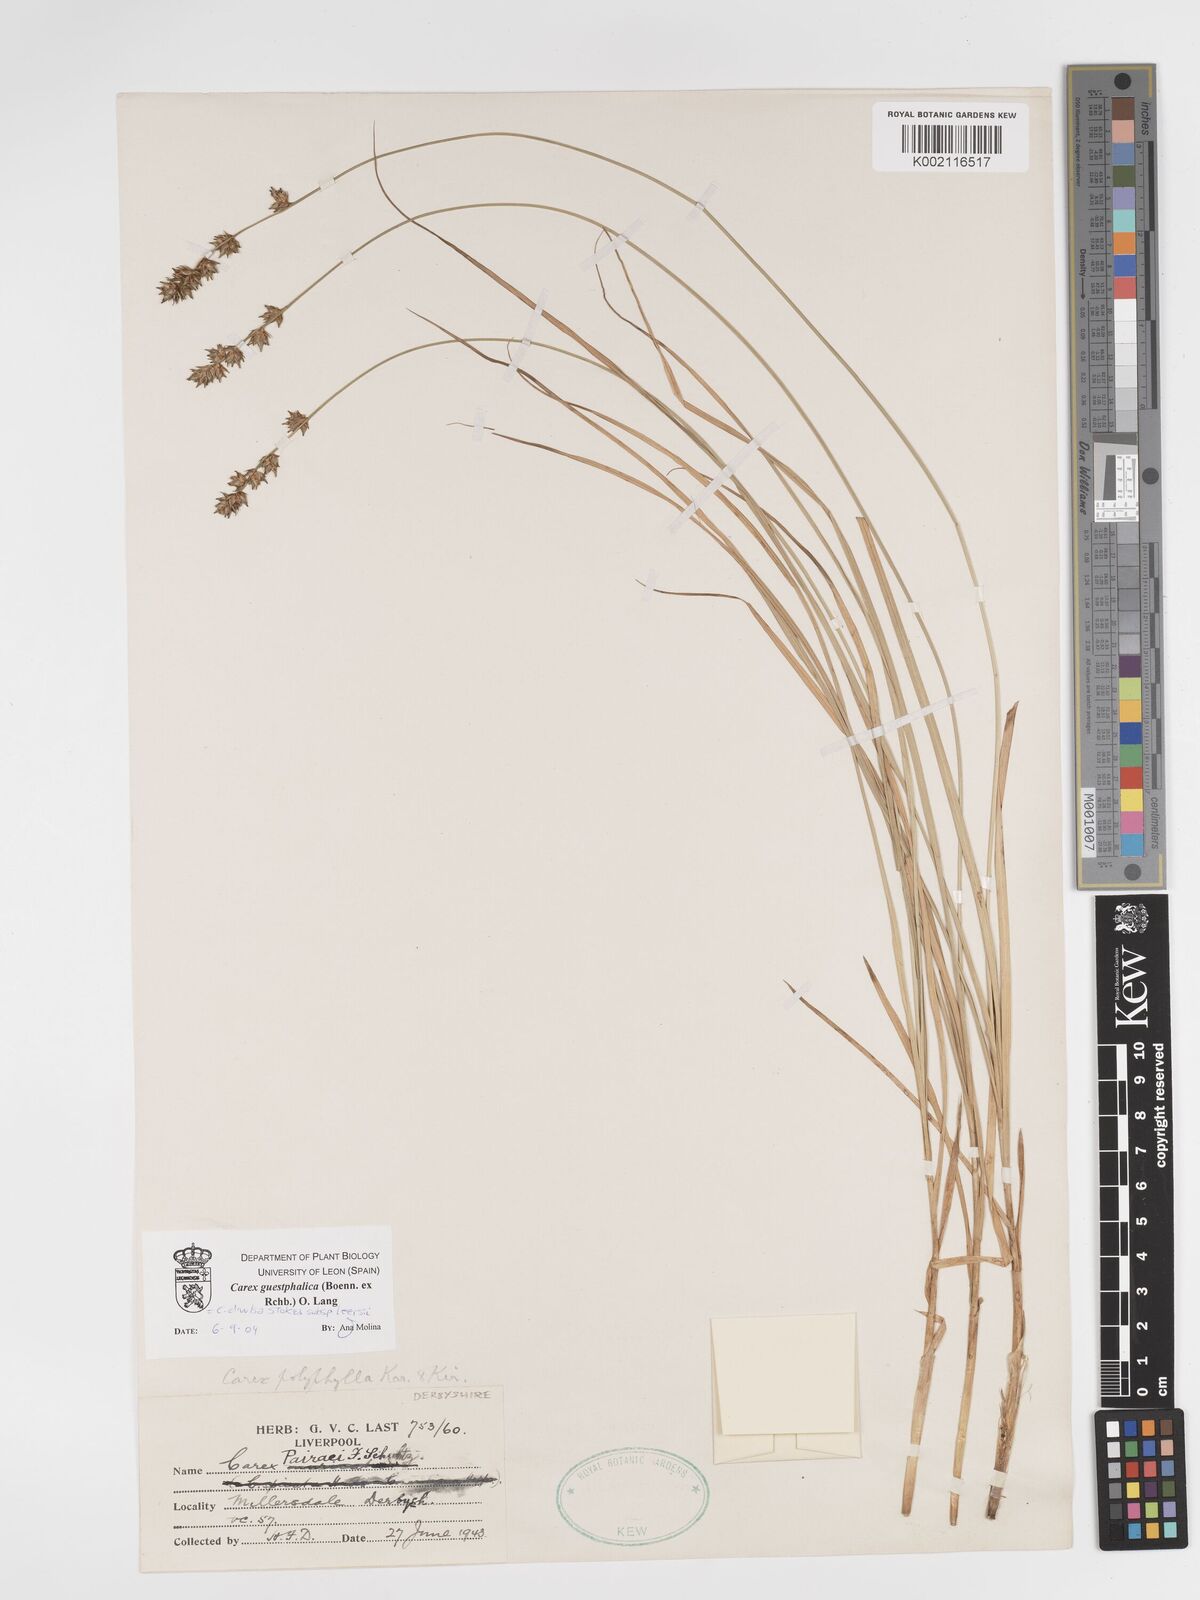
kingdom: Plantae
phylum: Tracheophyta
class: Liliopsida
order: Poales
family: Cyperaceae
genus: Carex
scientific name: Carex divulsa
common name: Grassland sedge
